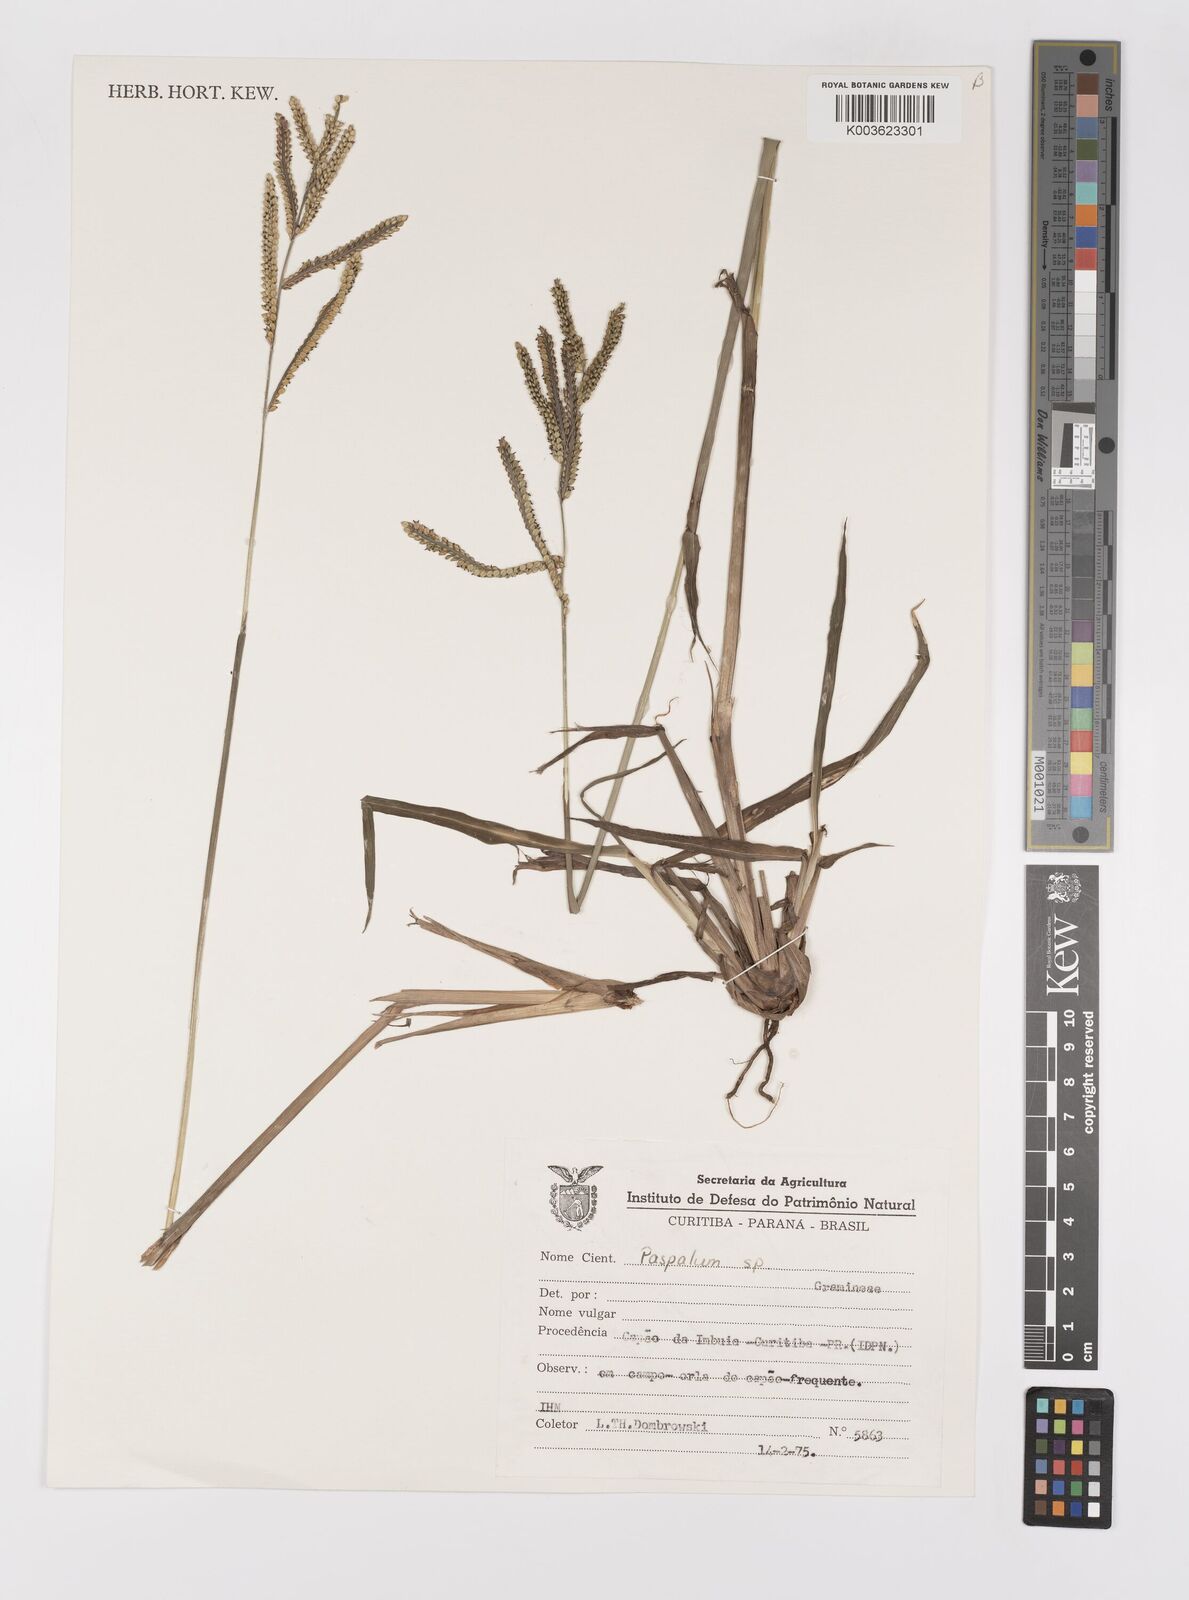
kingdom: Plantae
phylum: Tracheophyta
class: Liliopsida
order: Poales
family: Poaceae
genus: Paspalum
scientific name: Paspalum dilatatum
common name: Dallisgrass
